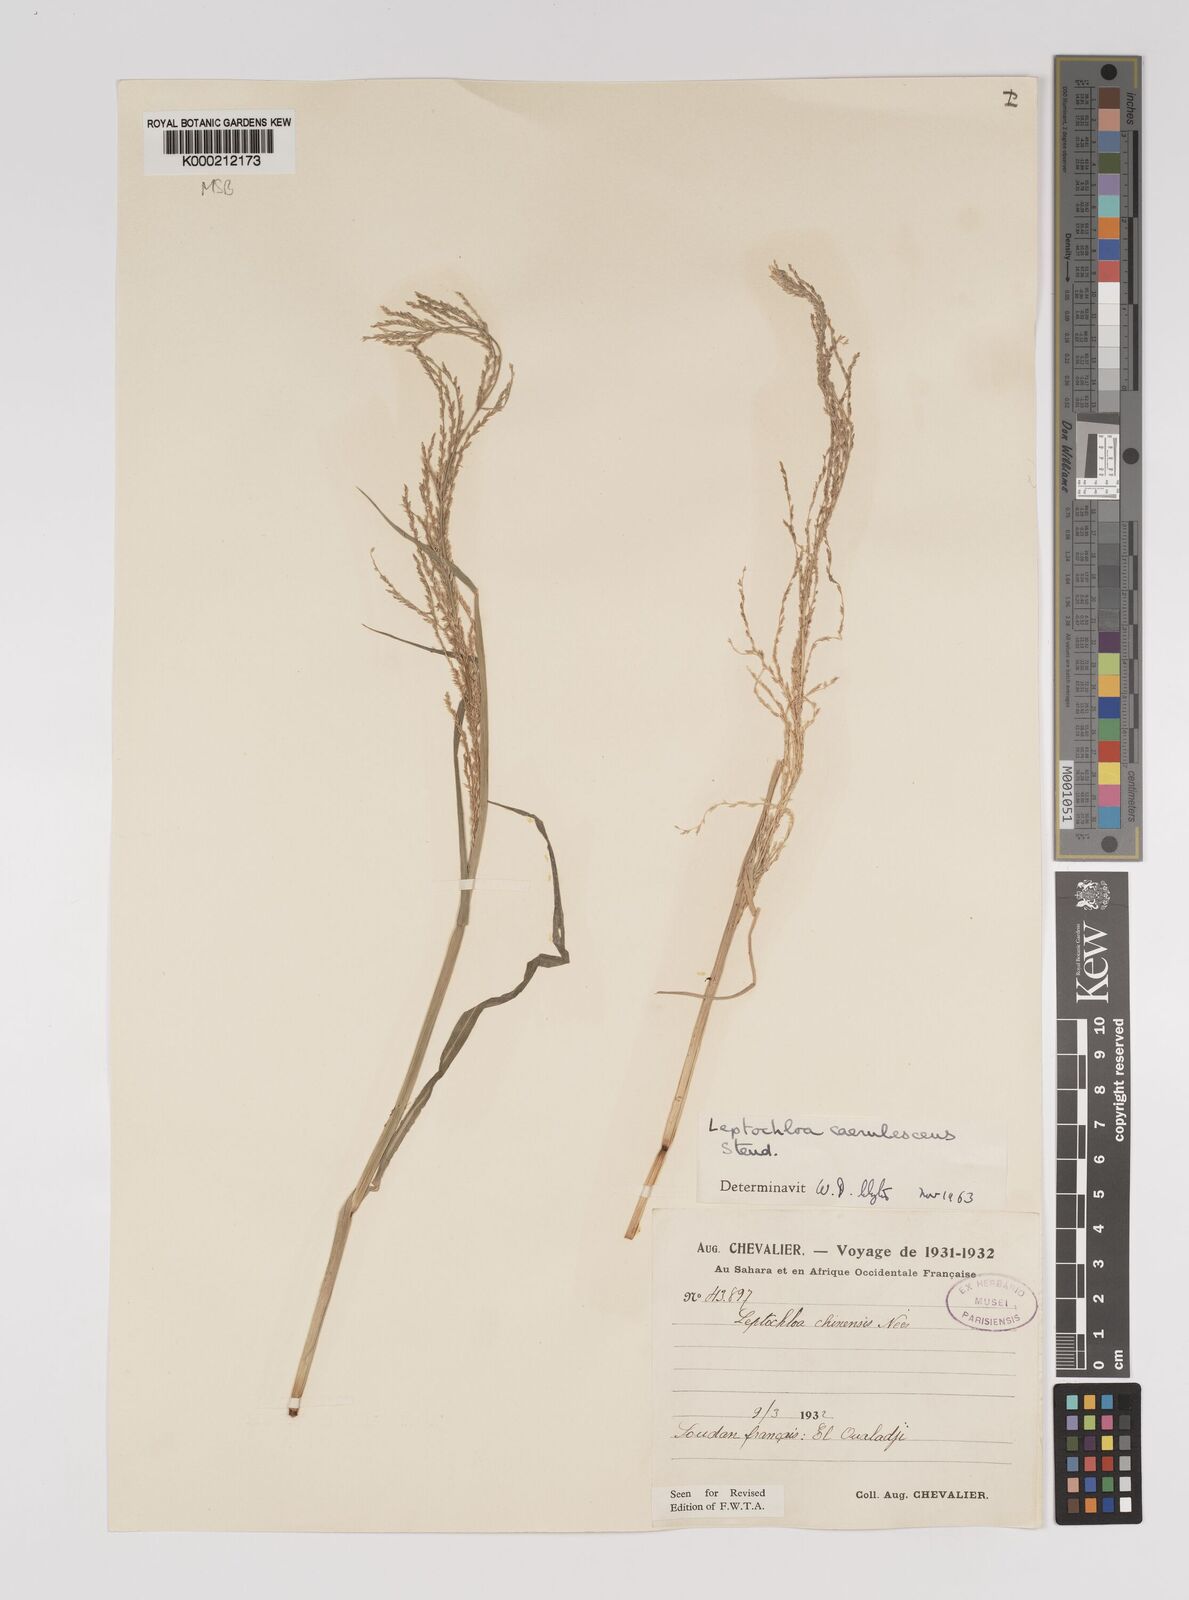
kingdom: Plantae
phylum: Tracheophyta
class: Liliopsida
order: Poales
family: Poaceae
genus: Leptochloa
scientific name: Leptochloa
